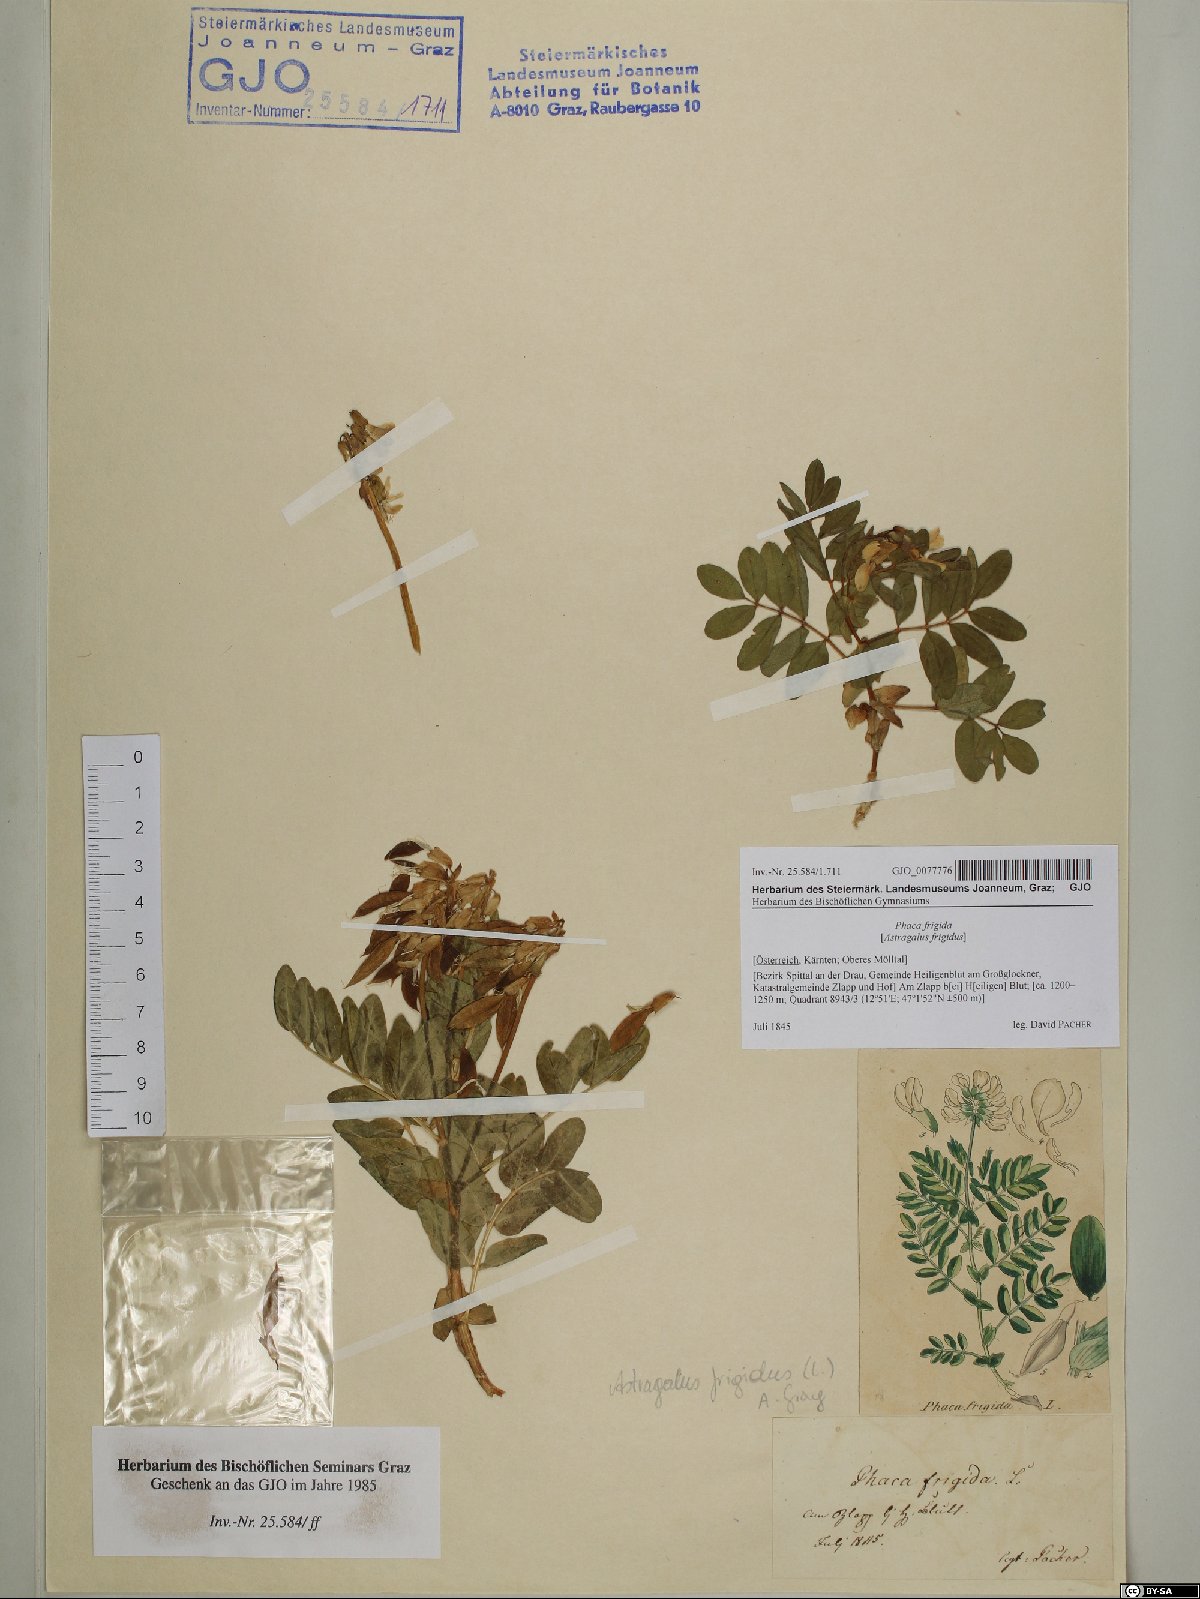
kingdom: Plantae
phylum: Tracheophyta
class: Magnoliopsida
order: Fabales
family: Fabaceae
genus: Astragalus
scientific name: Astragalus frigidus
